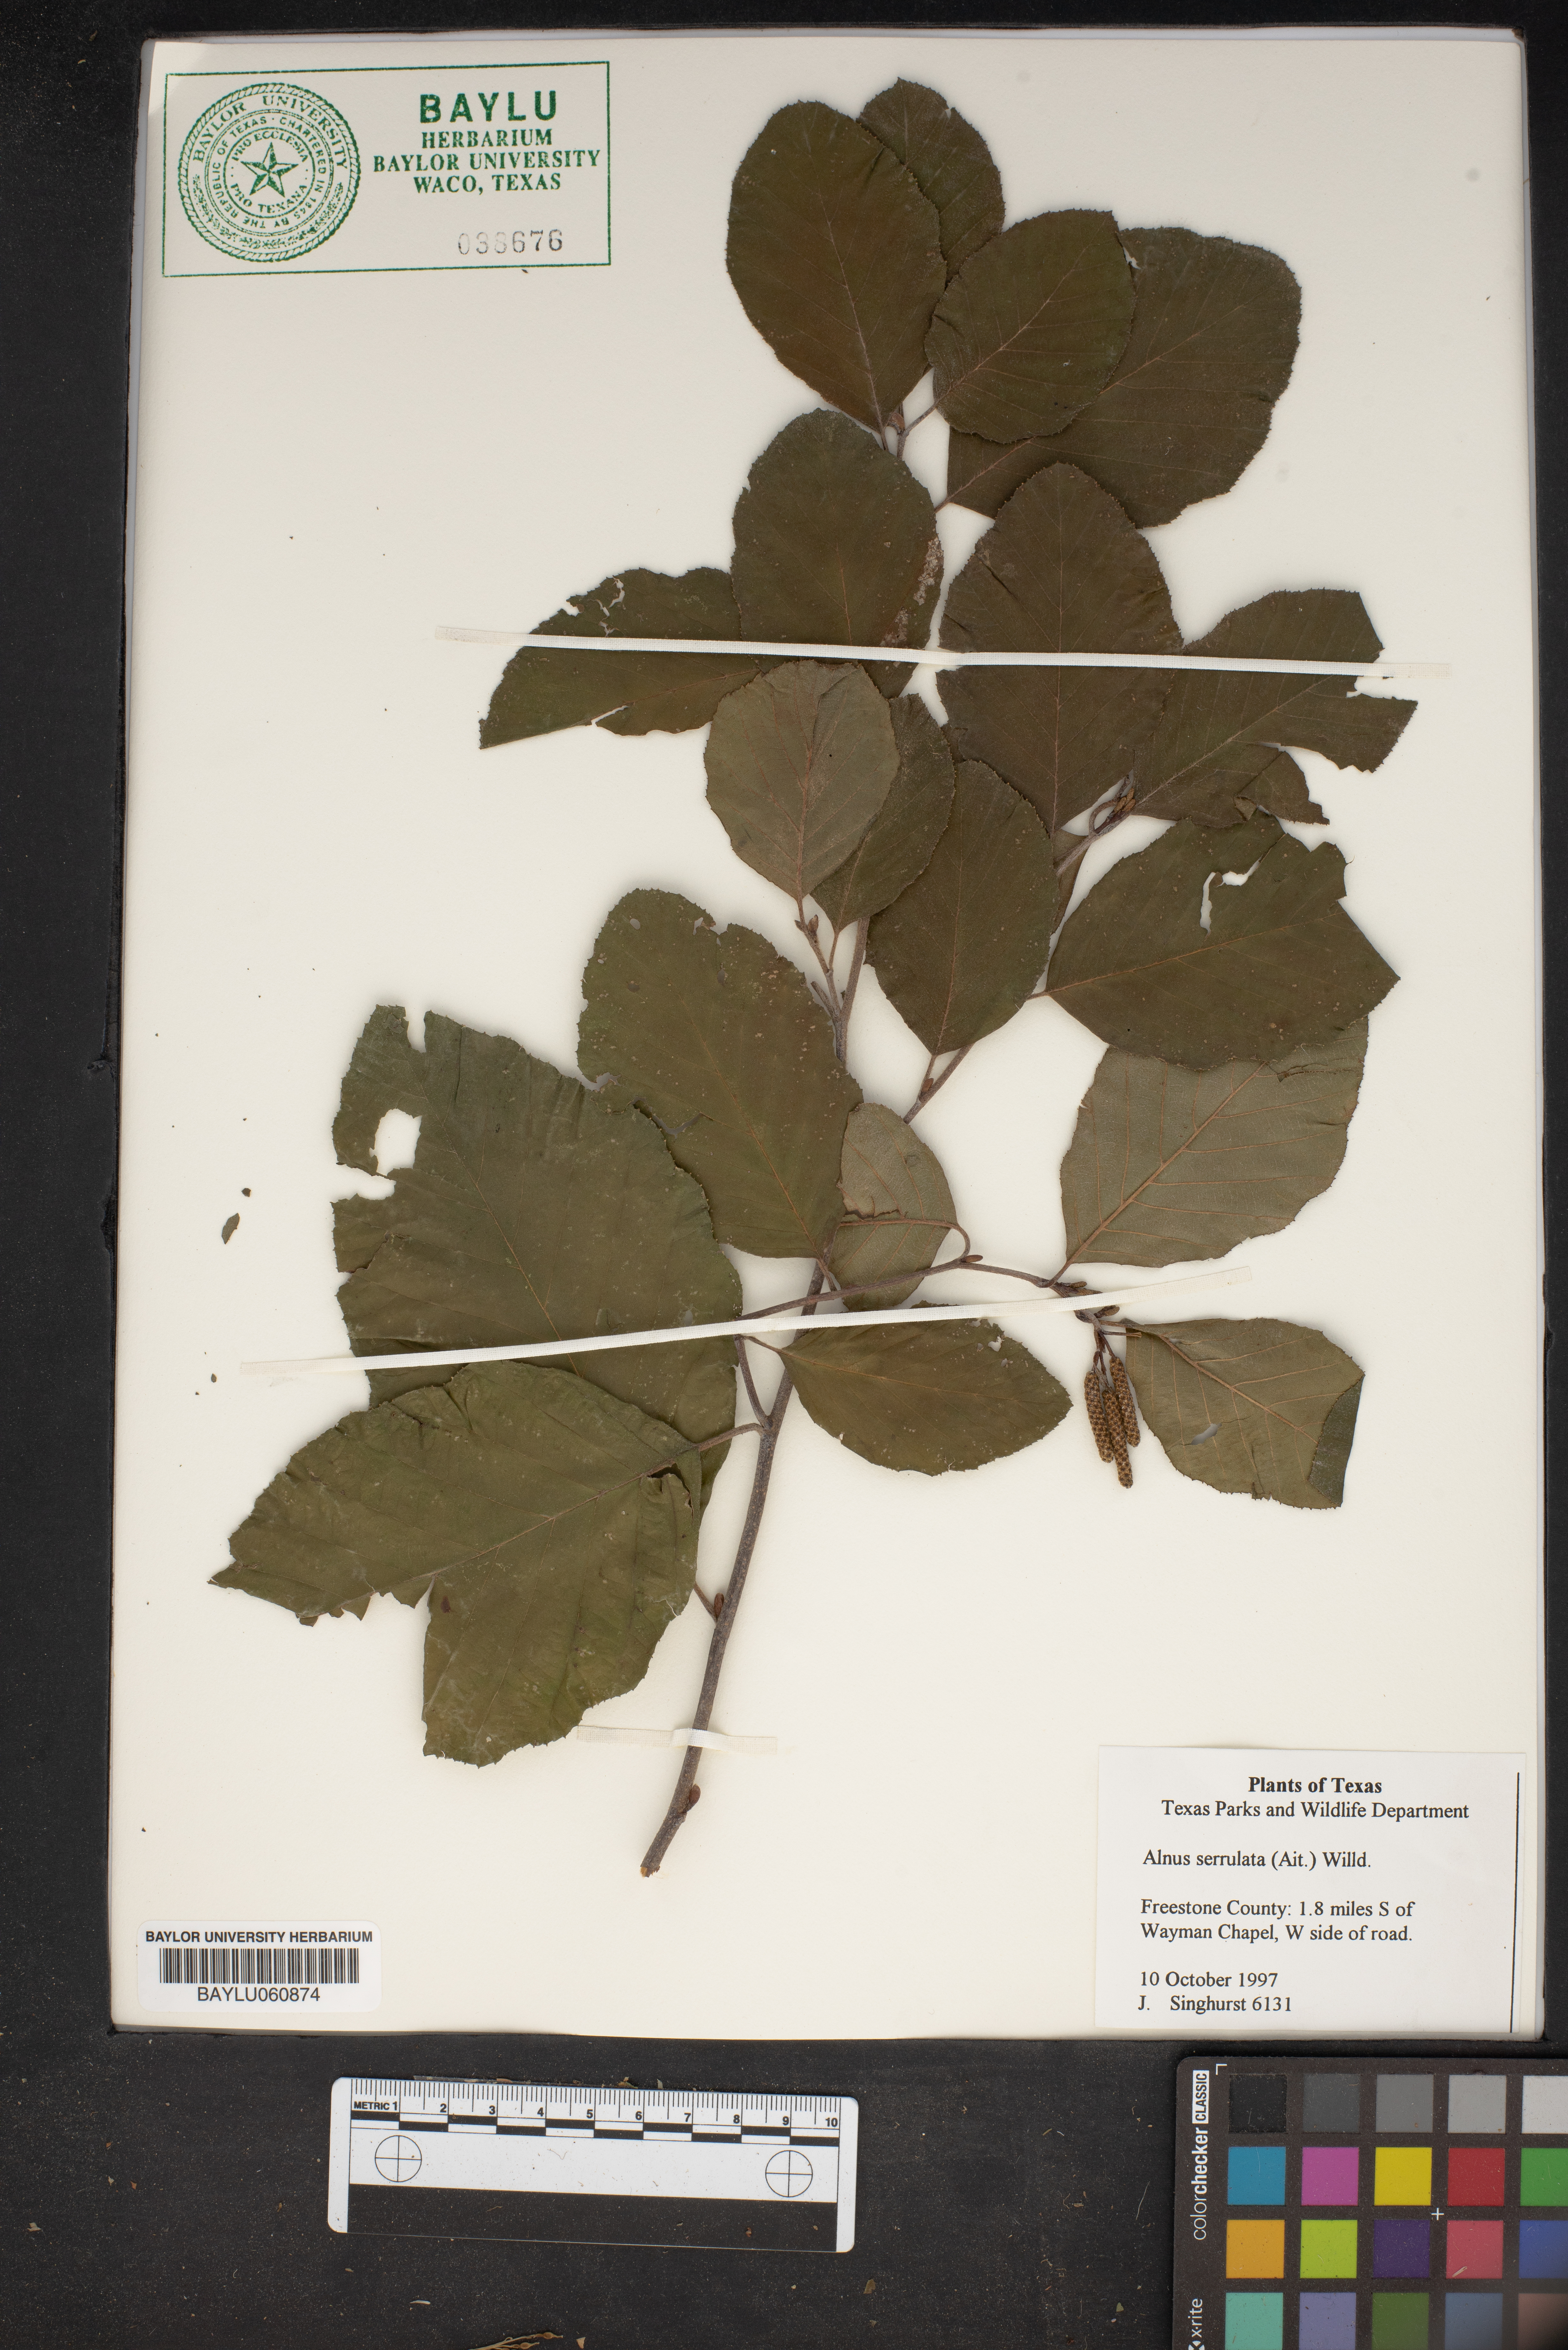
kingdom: Plantae
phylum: Tracheophyta
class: Magnoliopsida
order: Fagales
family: Betulaceae
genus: Alnus
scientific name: Alnus serrulata
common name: Hazel alder
